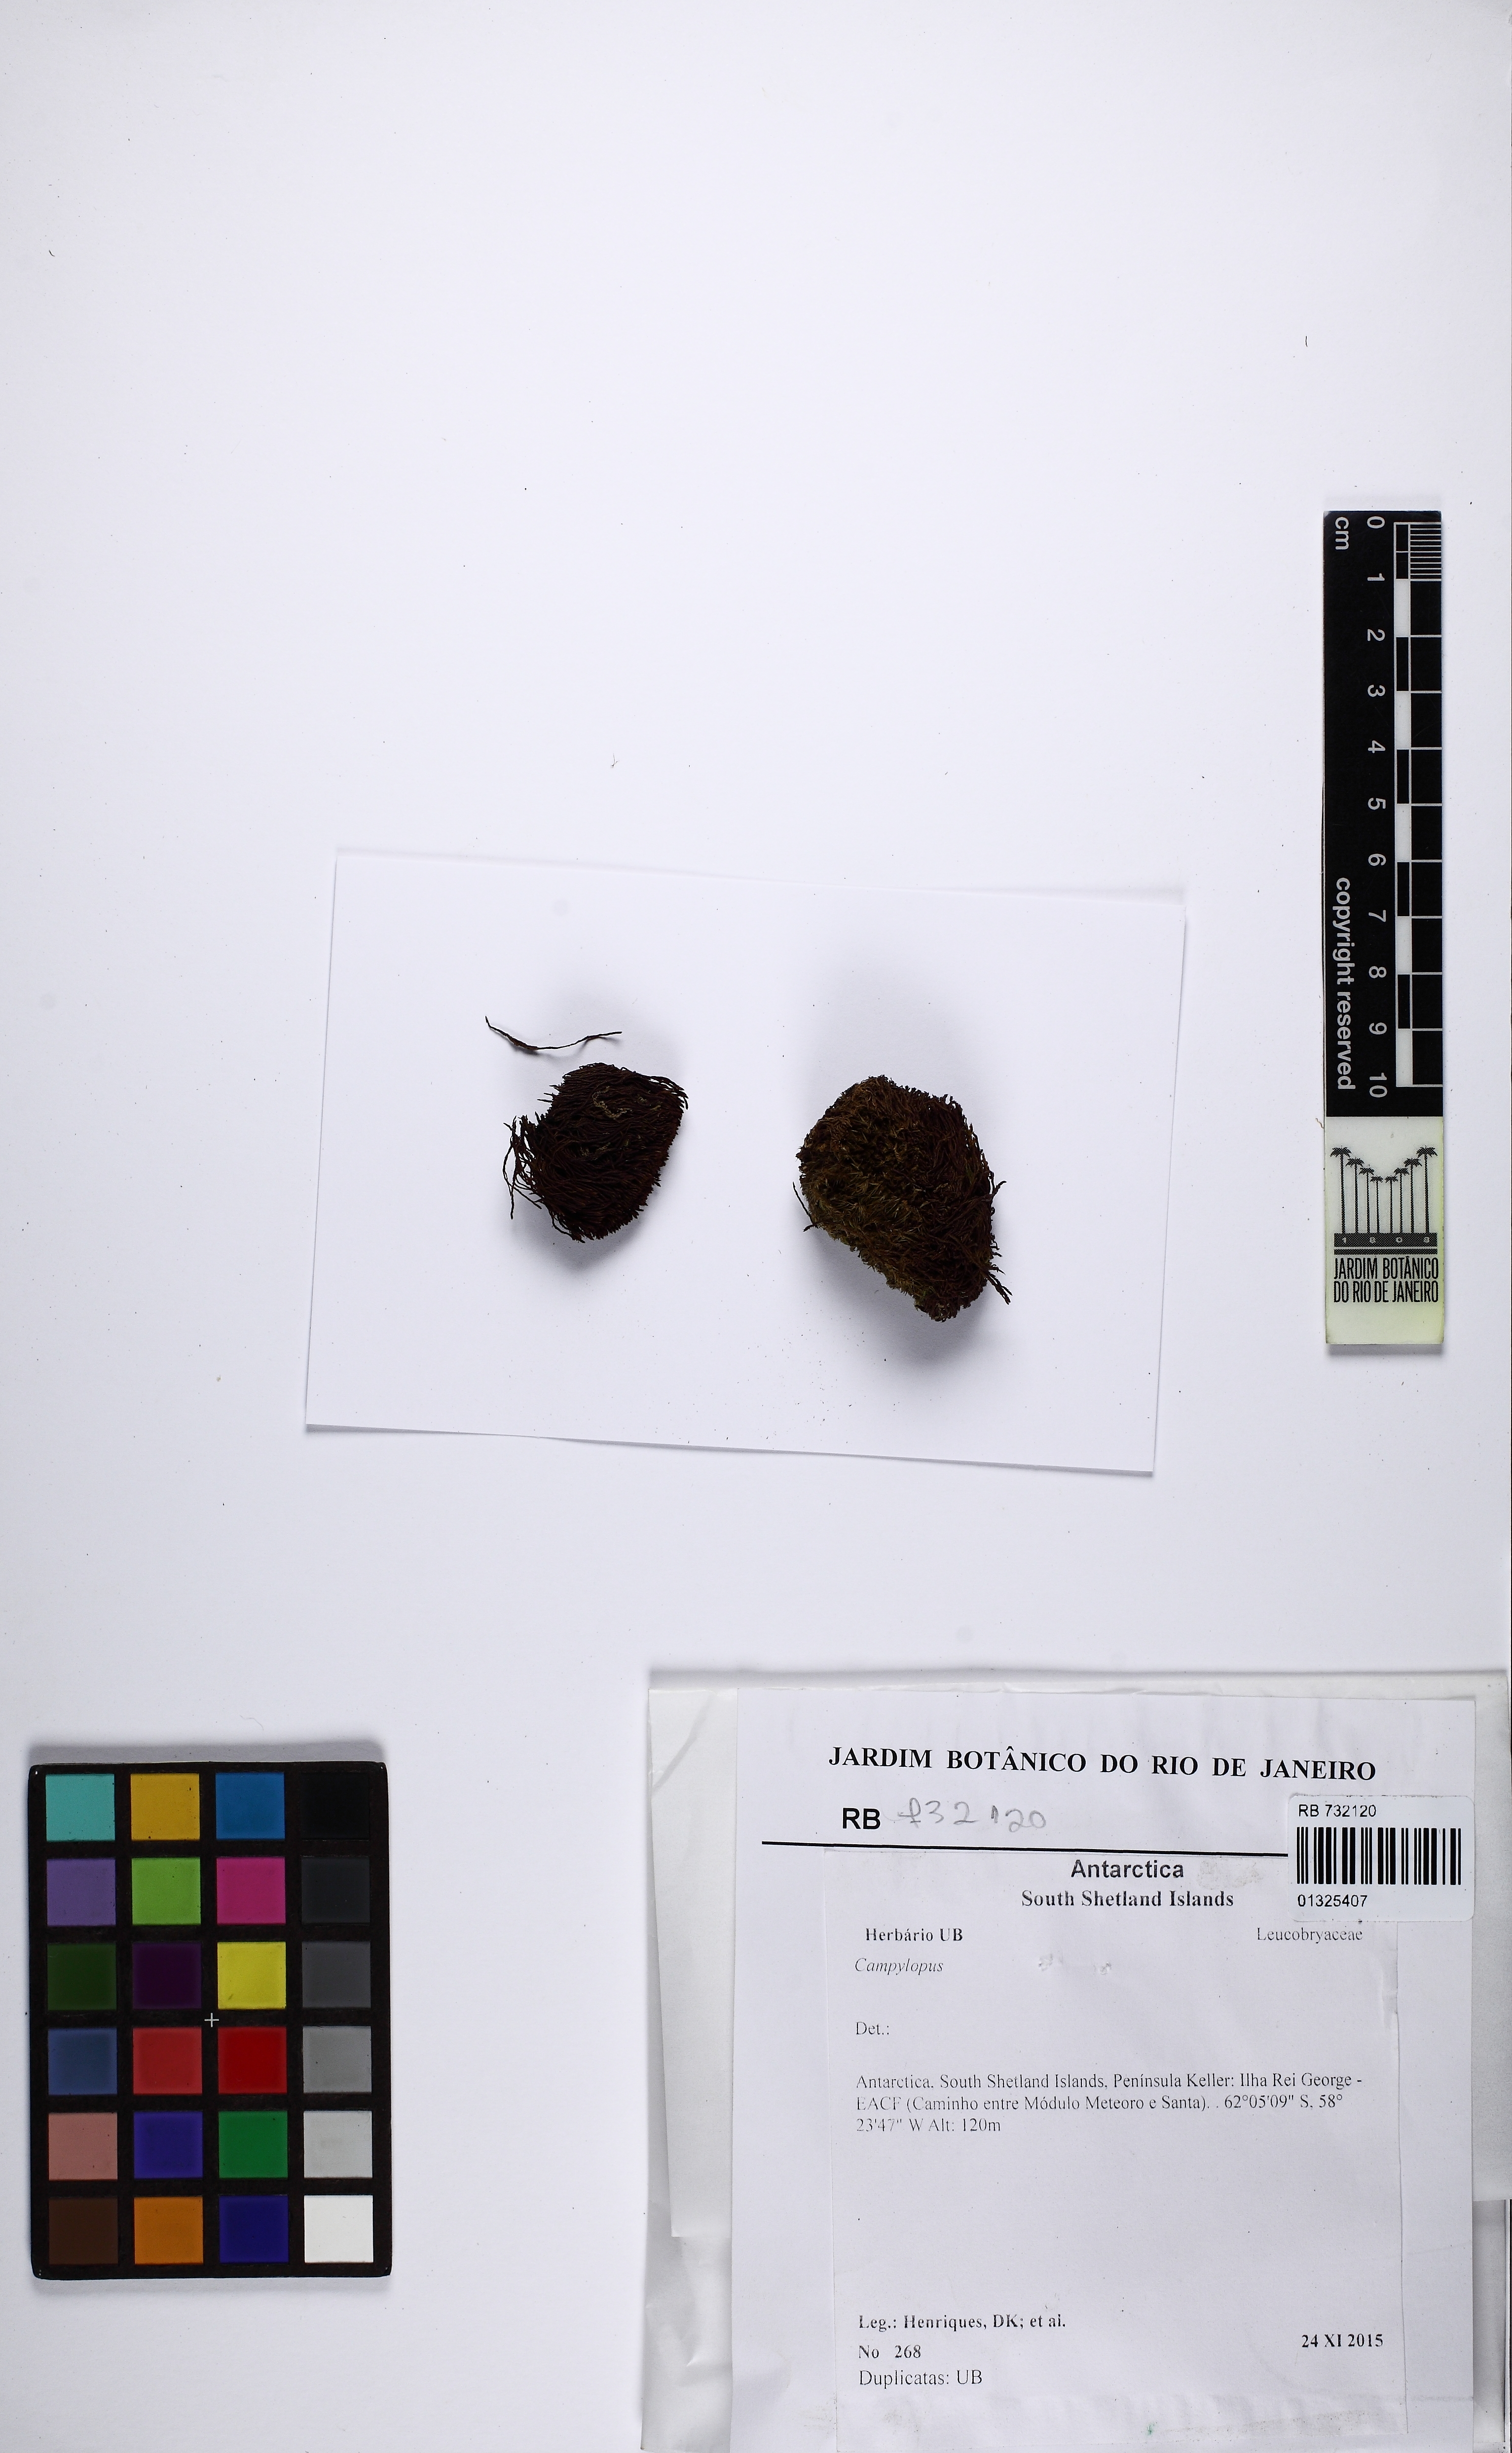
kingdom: Protozoa
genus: Campylopus
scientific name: Campylopus
